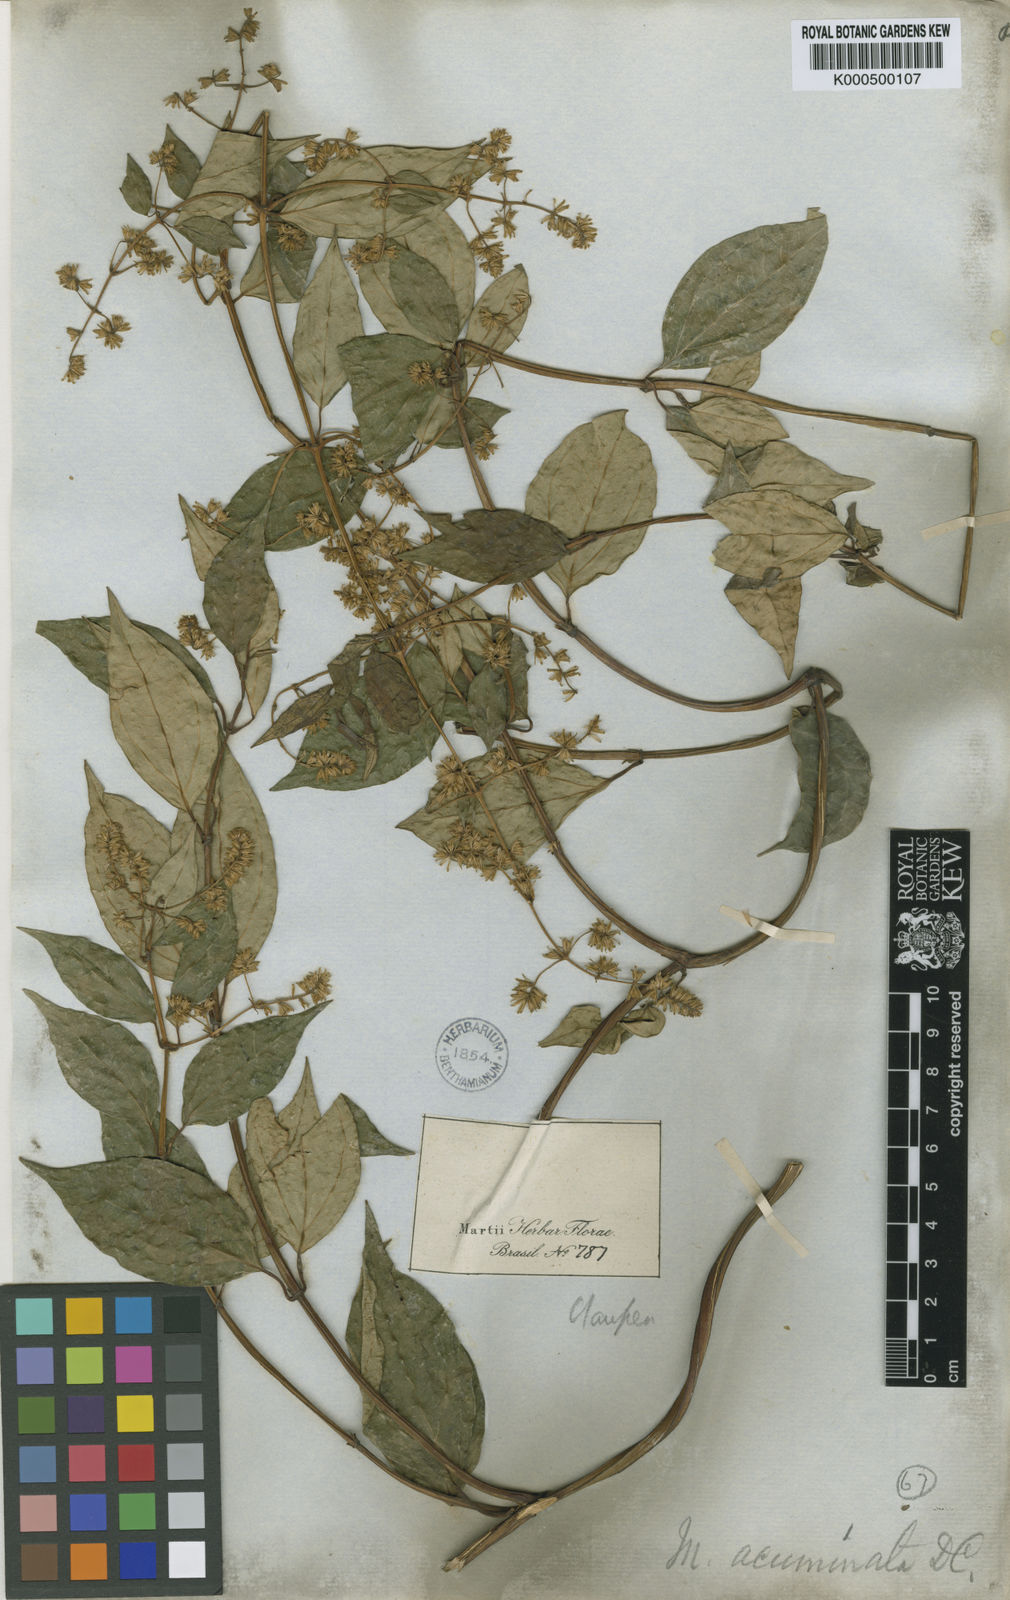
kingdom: Plantae
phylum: Tracheophyta
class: Magnoliopsida
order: Asterales
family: Asteraceae
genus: Mikania
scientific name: Mikania acuminata
